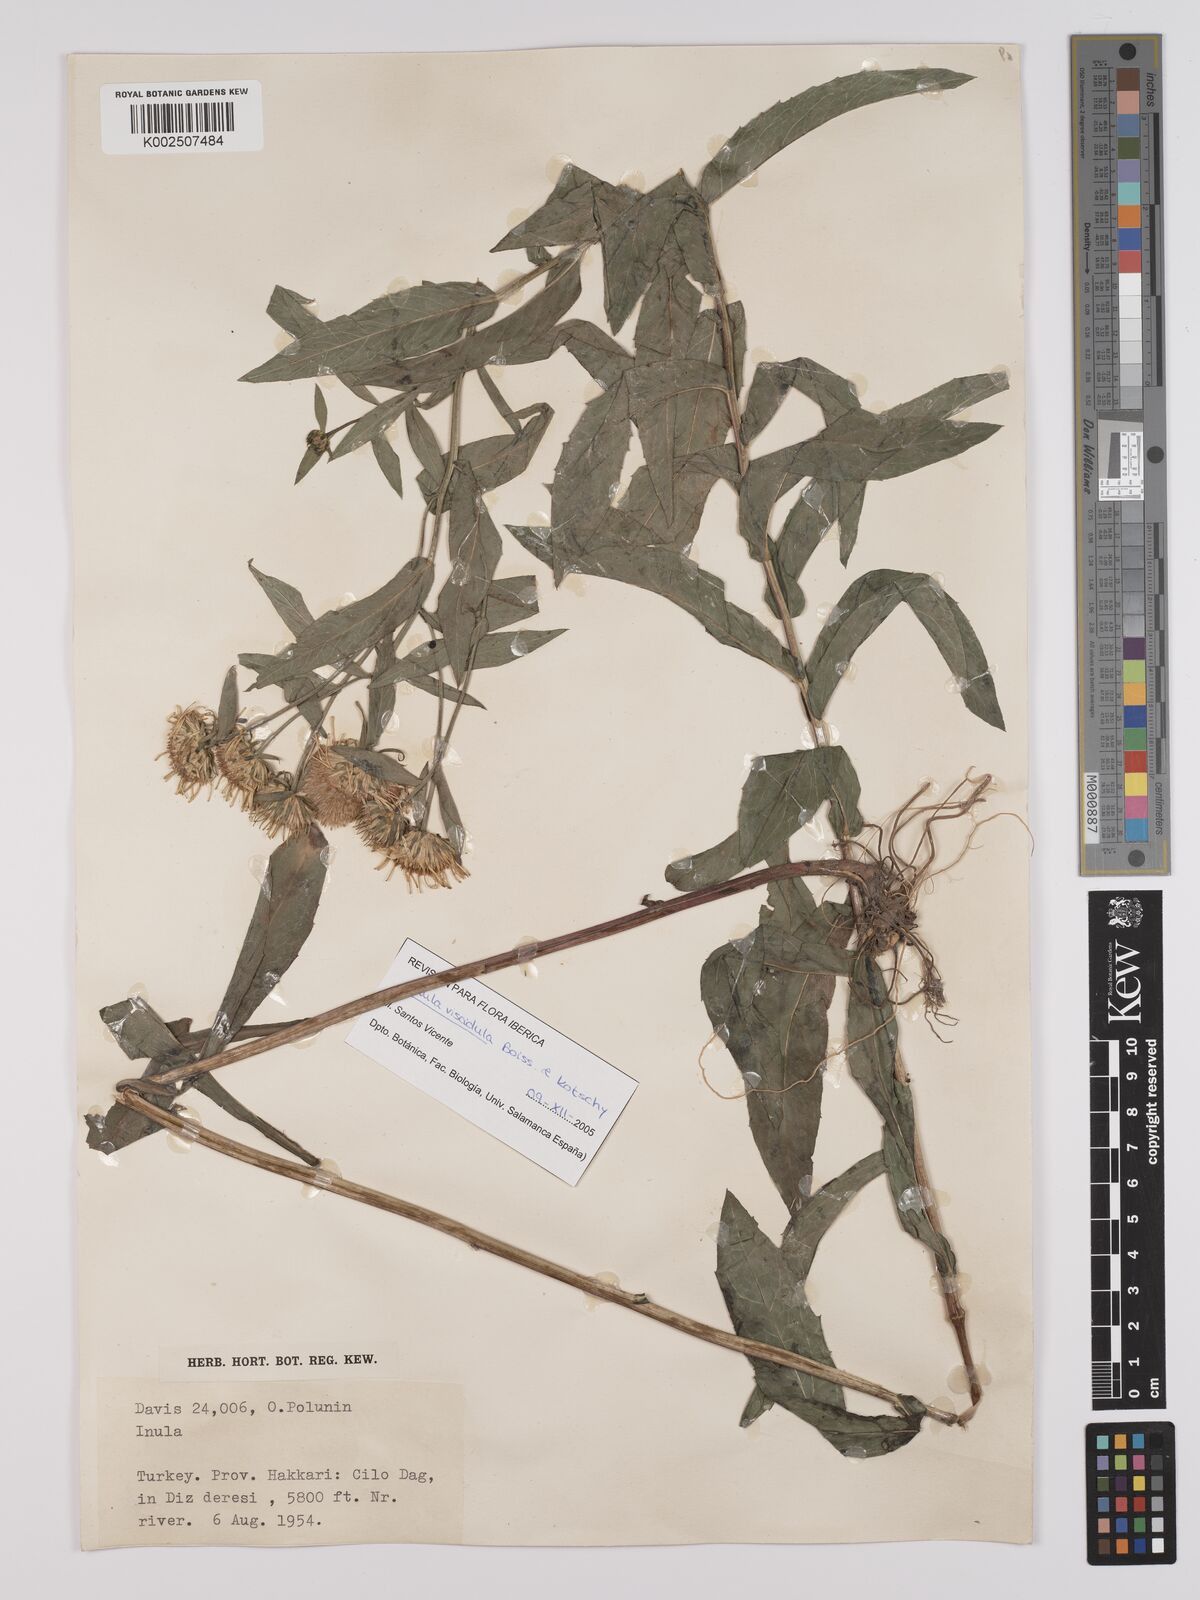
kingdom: Plantae
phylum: Tracheophyta
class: Magnoliopsida
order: Asterales
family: Asteraceae
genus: Pentanema
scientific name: Pentanema salicinum
